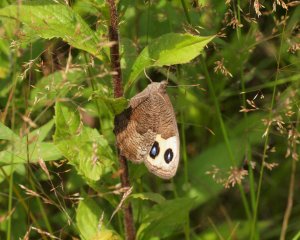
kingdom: Animalia
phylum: Arthropoda
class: Insecta
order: Lepidoptera
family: Nymphalidae
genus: Cercyonis
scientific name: Cercyonis pegala
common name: Common Wood-Nymph
